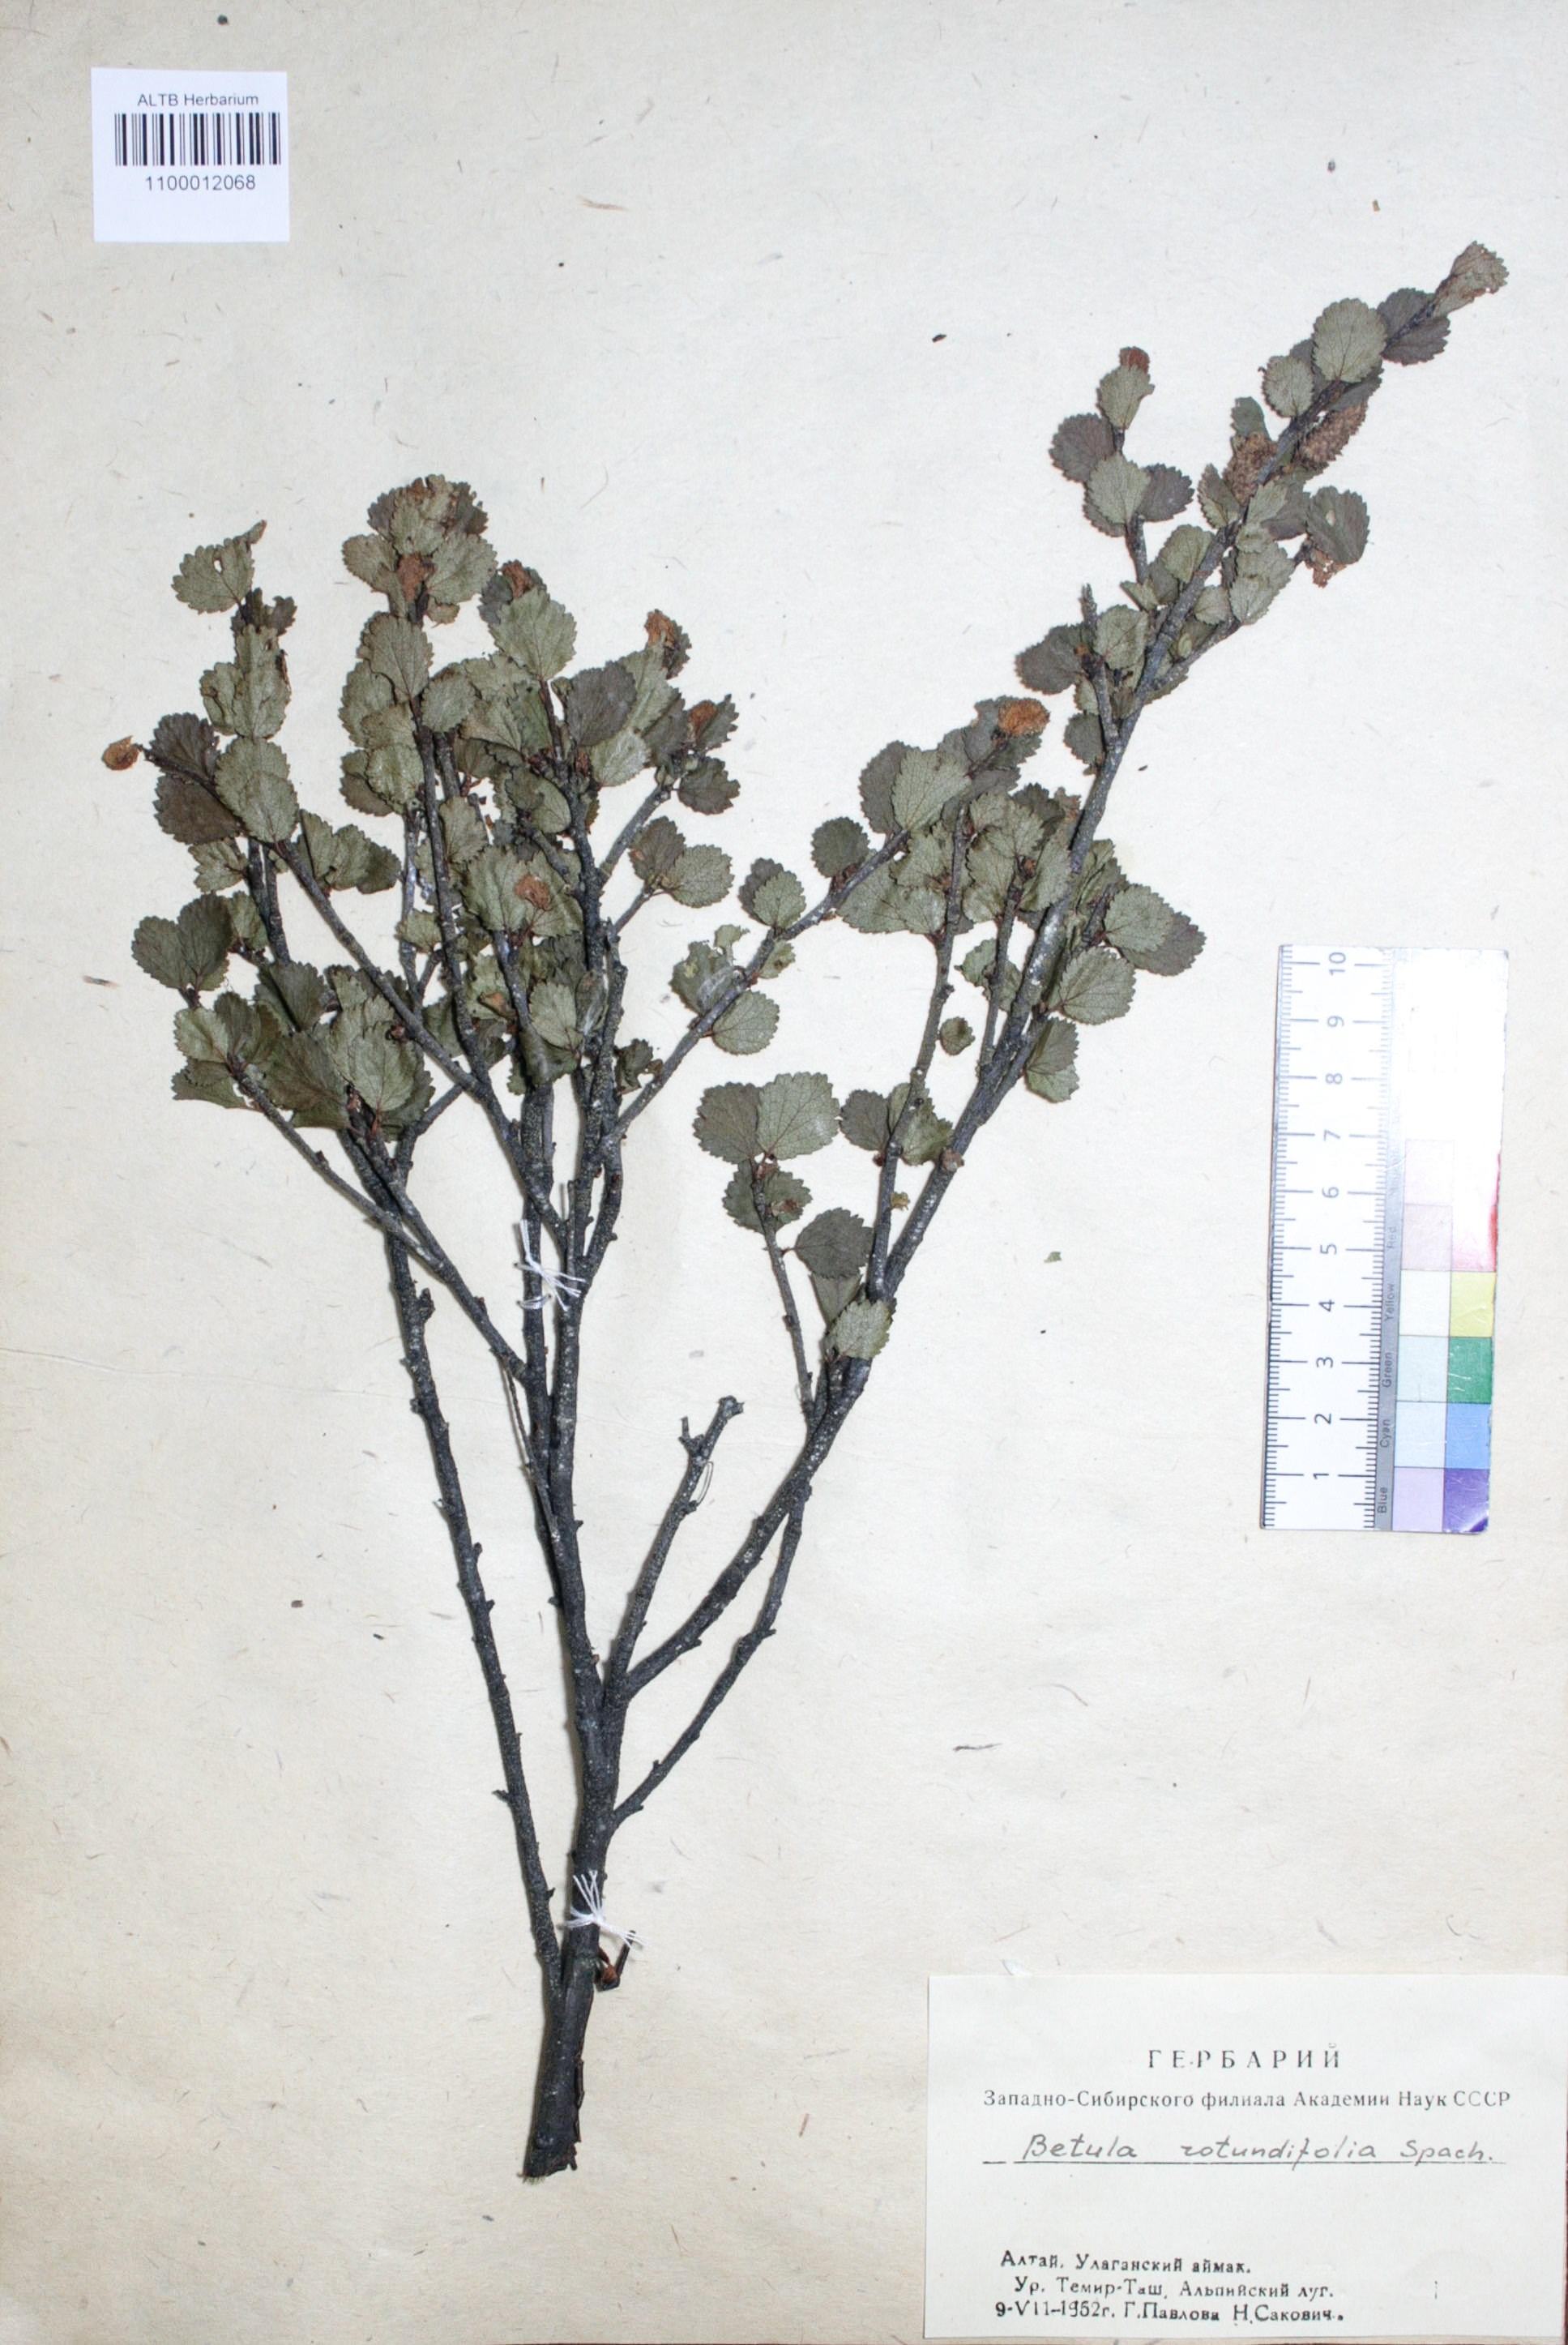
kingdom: Plantae
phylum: Tracheophyta
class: Magnoliopsida
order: Fagales
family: Betulaceae
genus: Betula
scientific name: Betula glandulosa
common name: Dwarf birch
